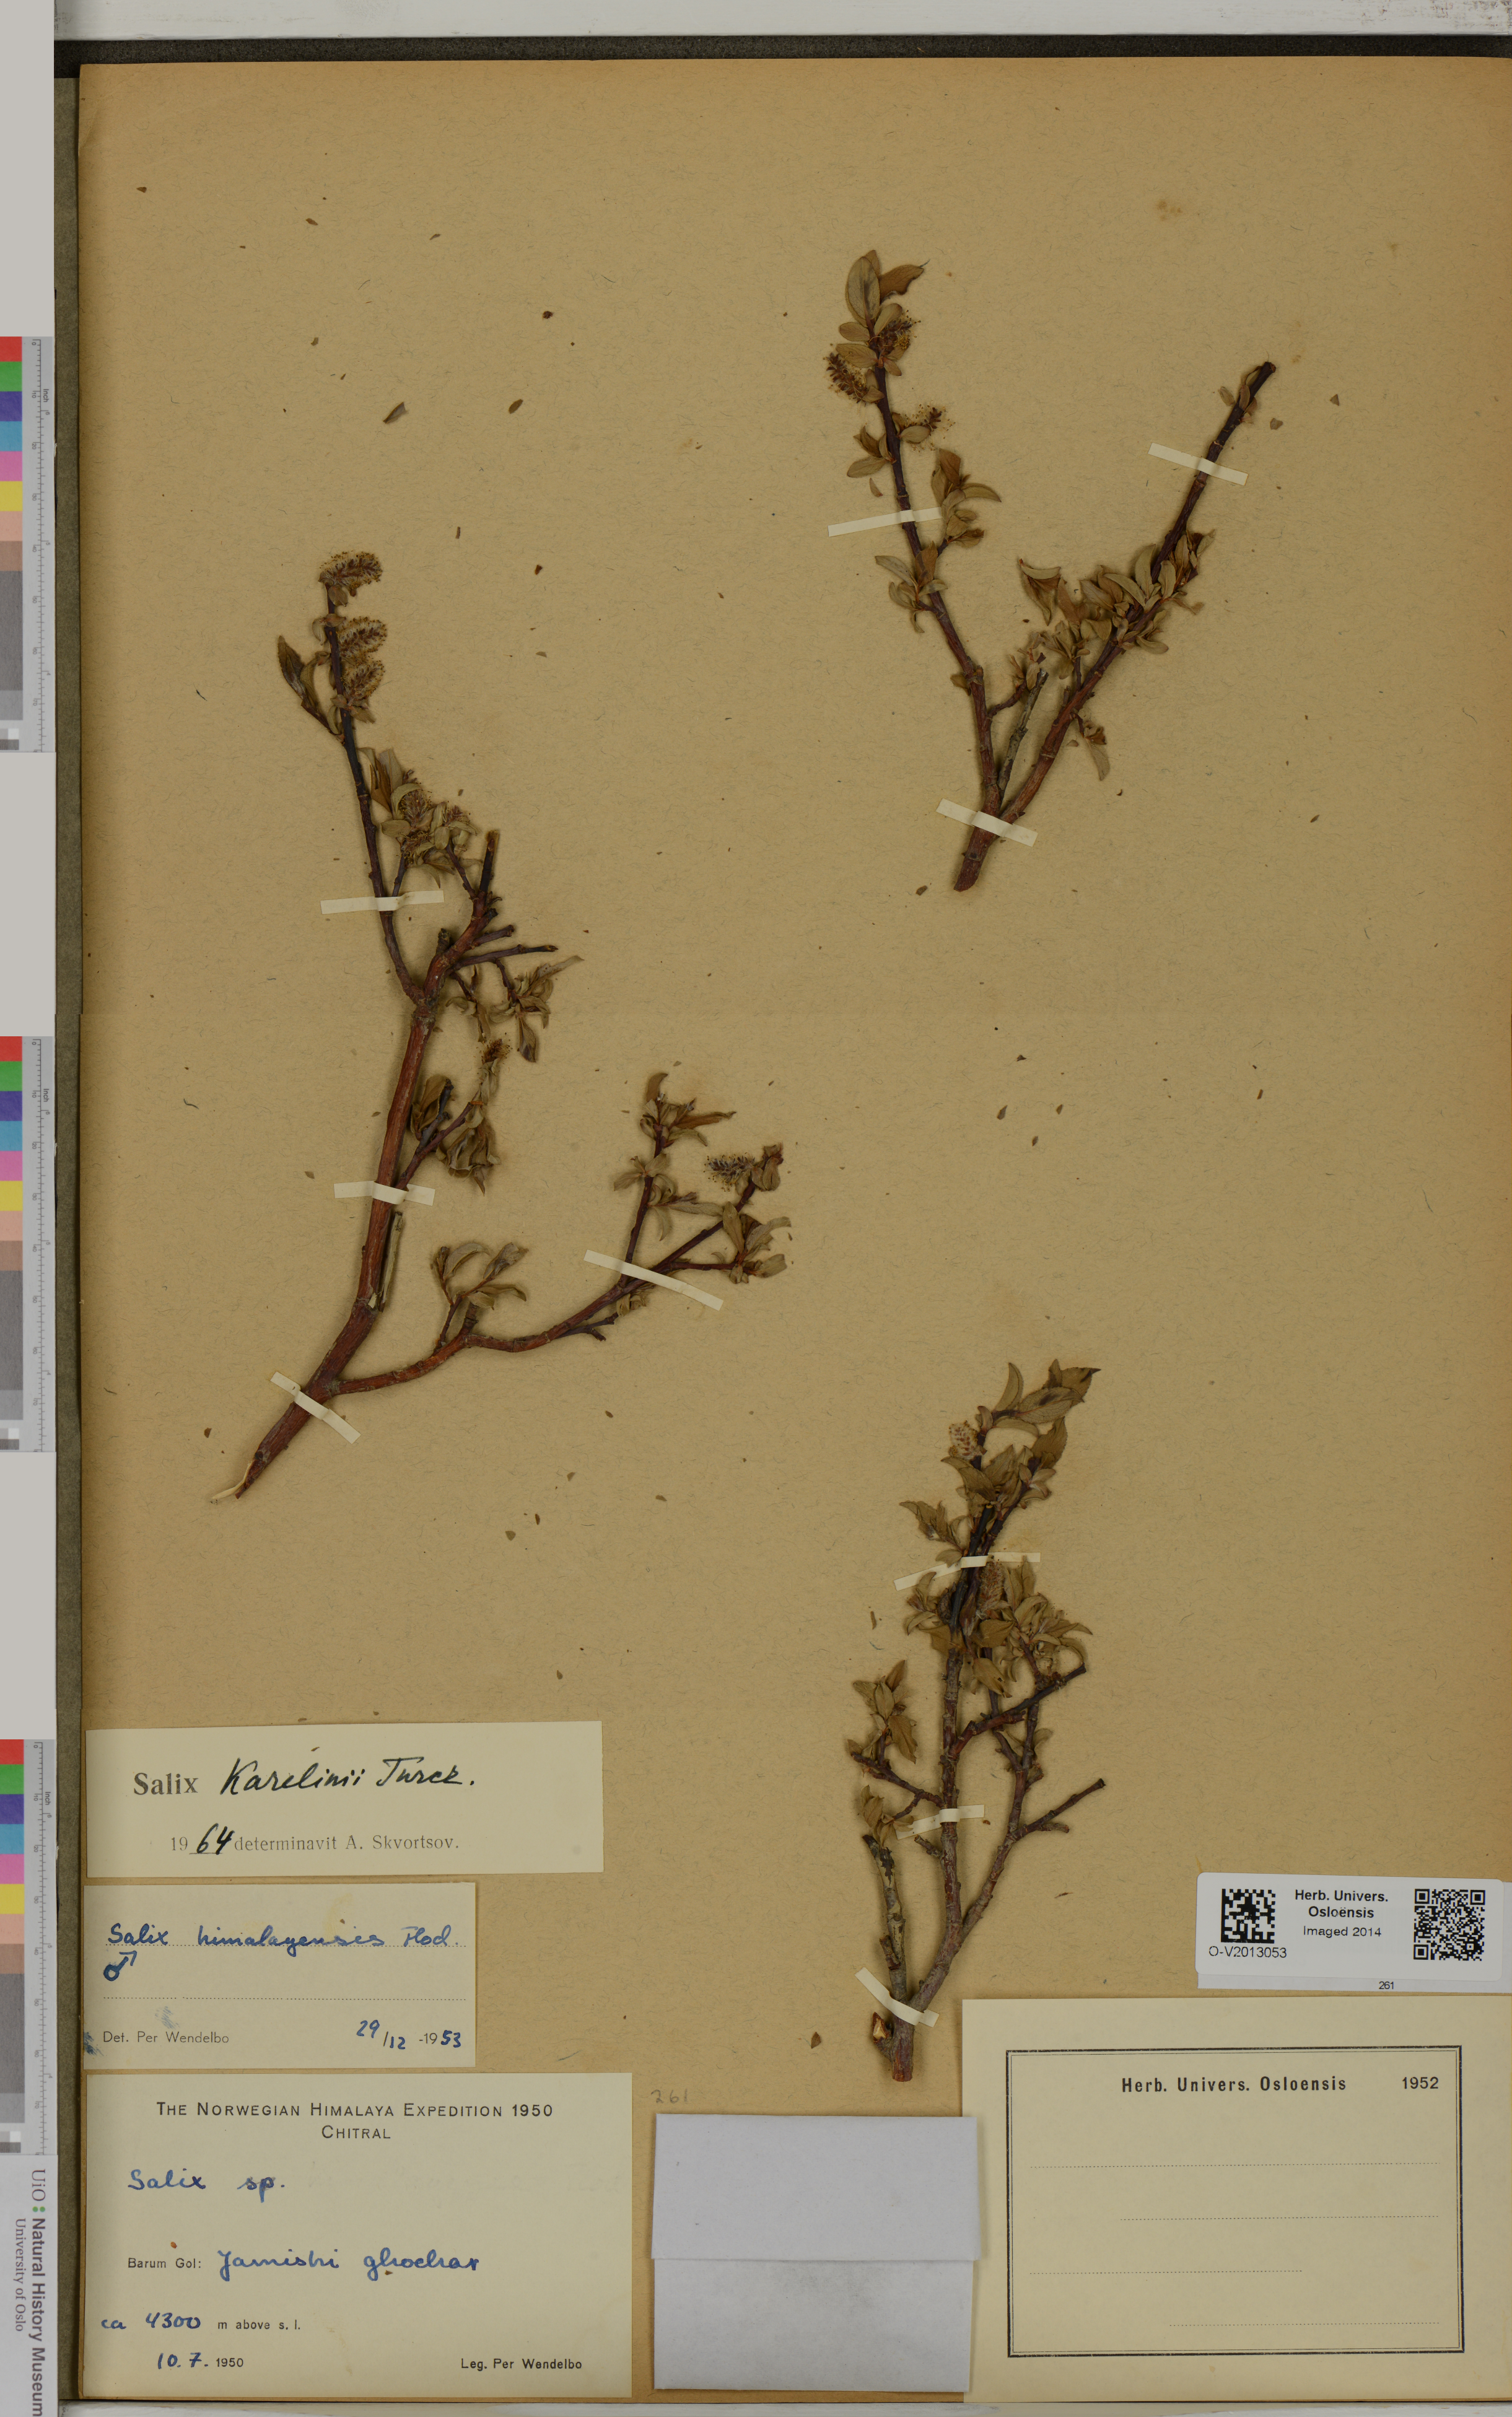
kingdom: Plantae
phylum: Tracheophyta
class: Magnoliopsida
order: Malpighiales
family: Salicaceae
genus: Salix
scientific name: Salix karelinii
